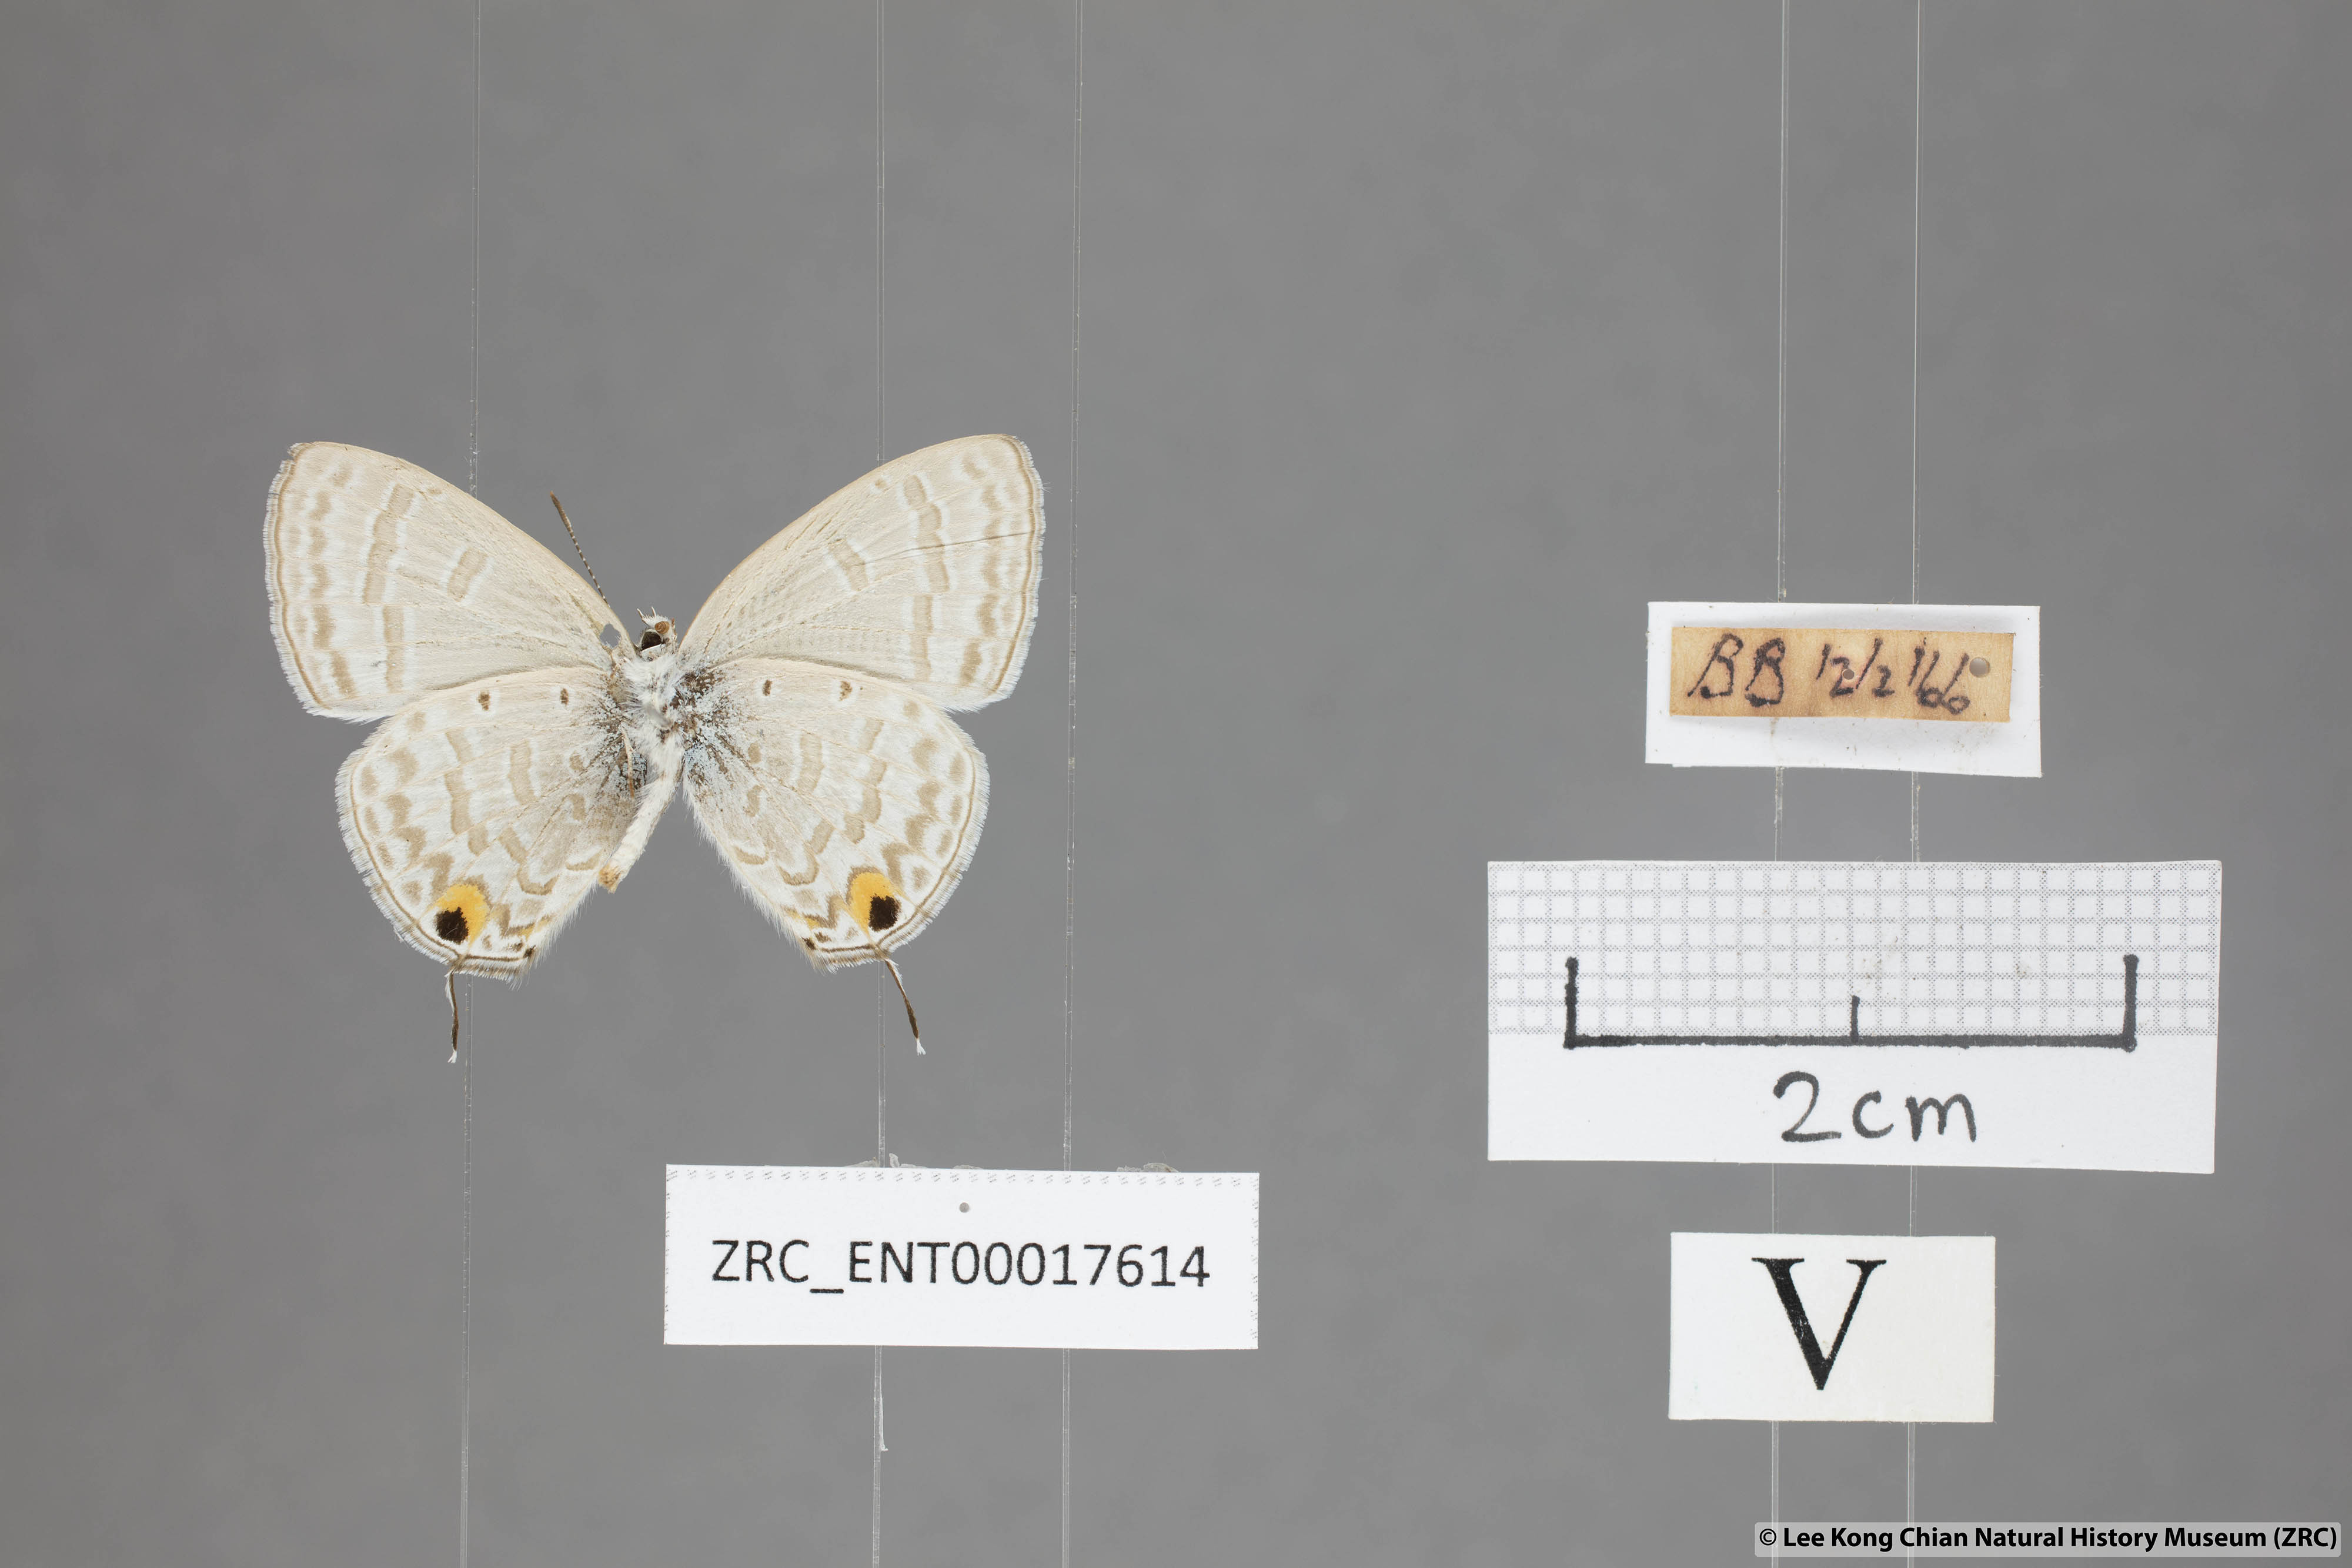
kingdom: Animalia
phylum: Arthropoda
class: Insecta
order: Lepidoptera
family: Lycaenidae
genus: Catochrysops
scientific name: Catochrysops panormus
